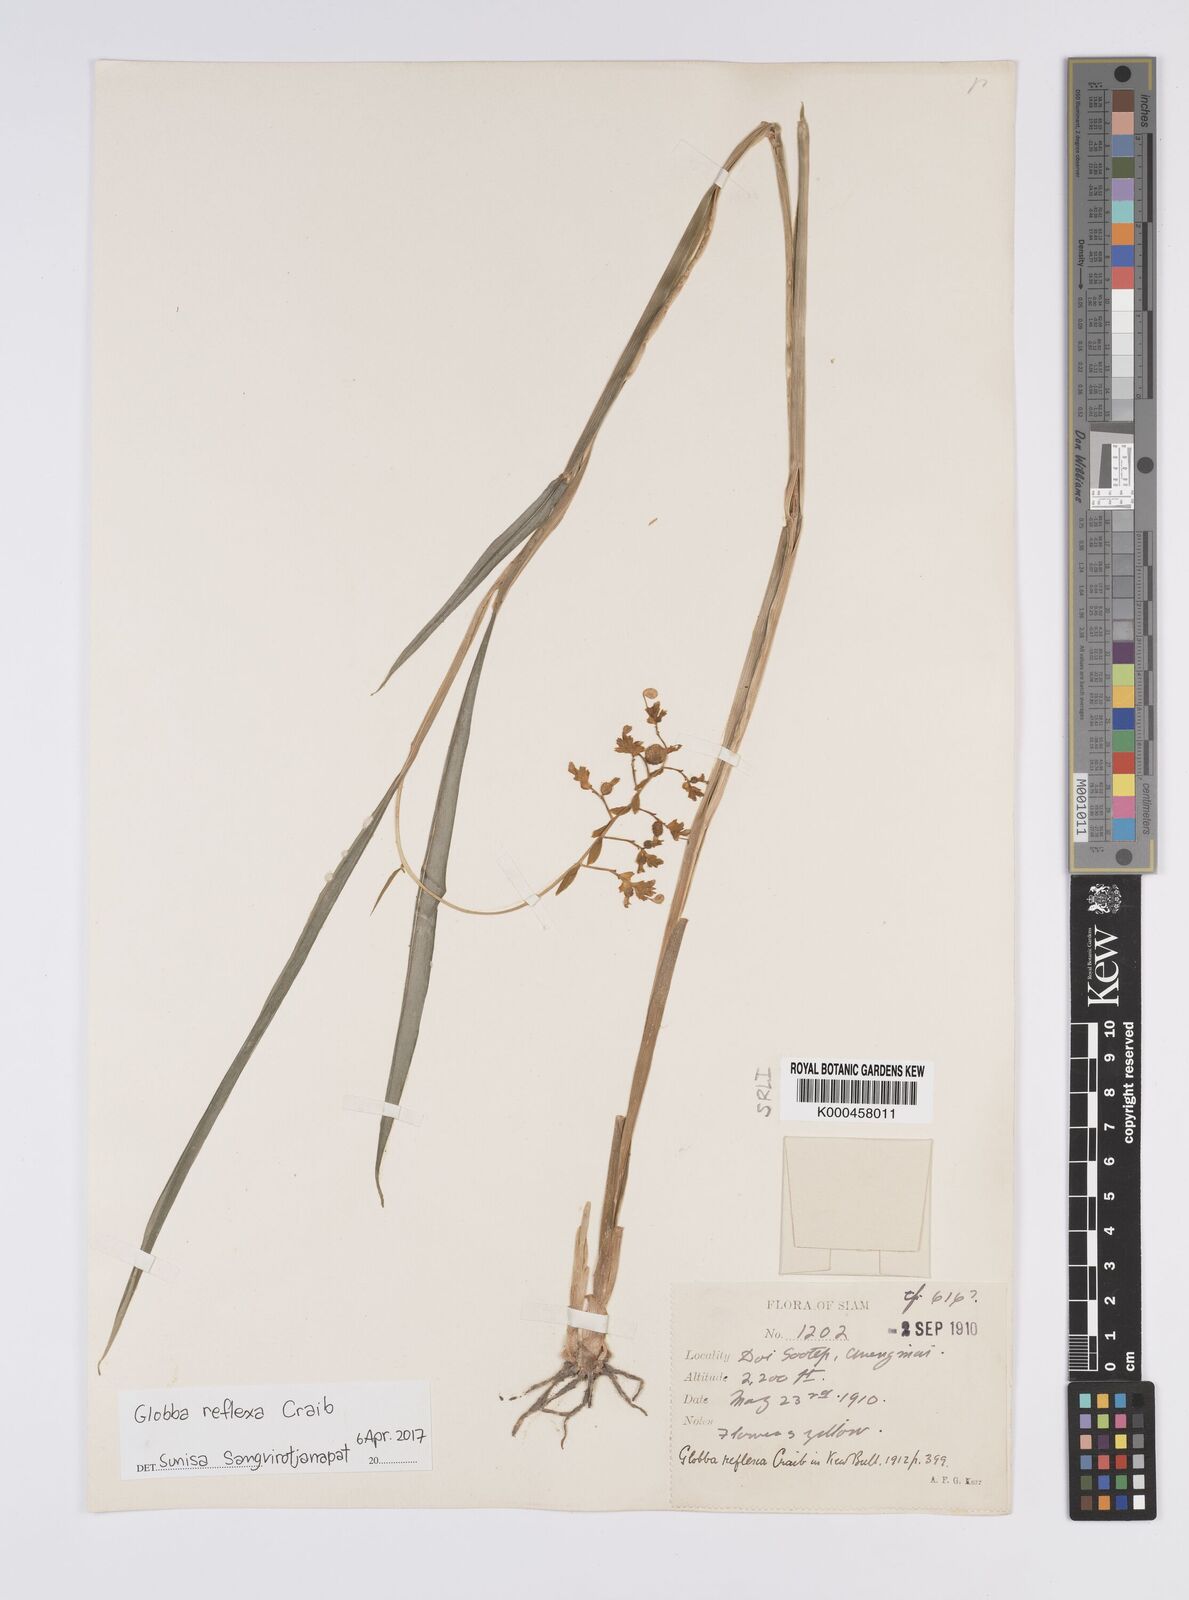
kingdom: Plantae
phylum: Tracheophyta
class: Liliopsida
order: Zingiberales
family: Zingiberaceae
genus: Globba
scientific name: Globba
